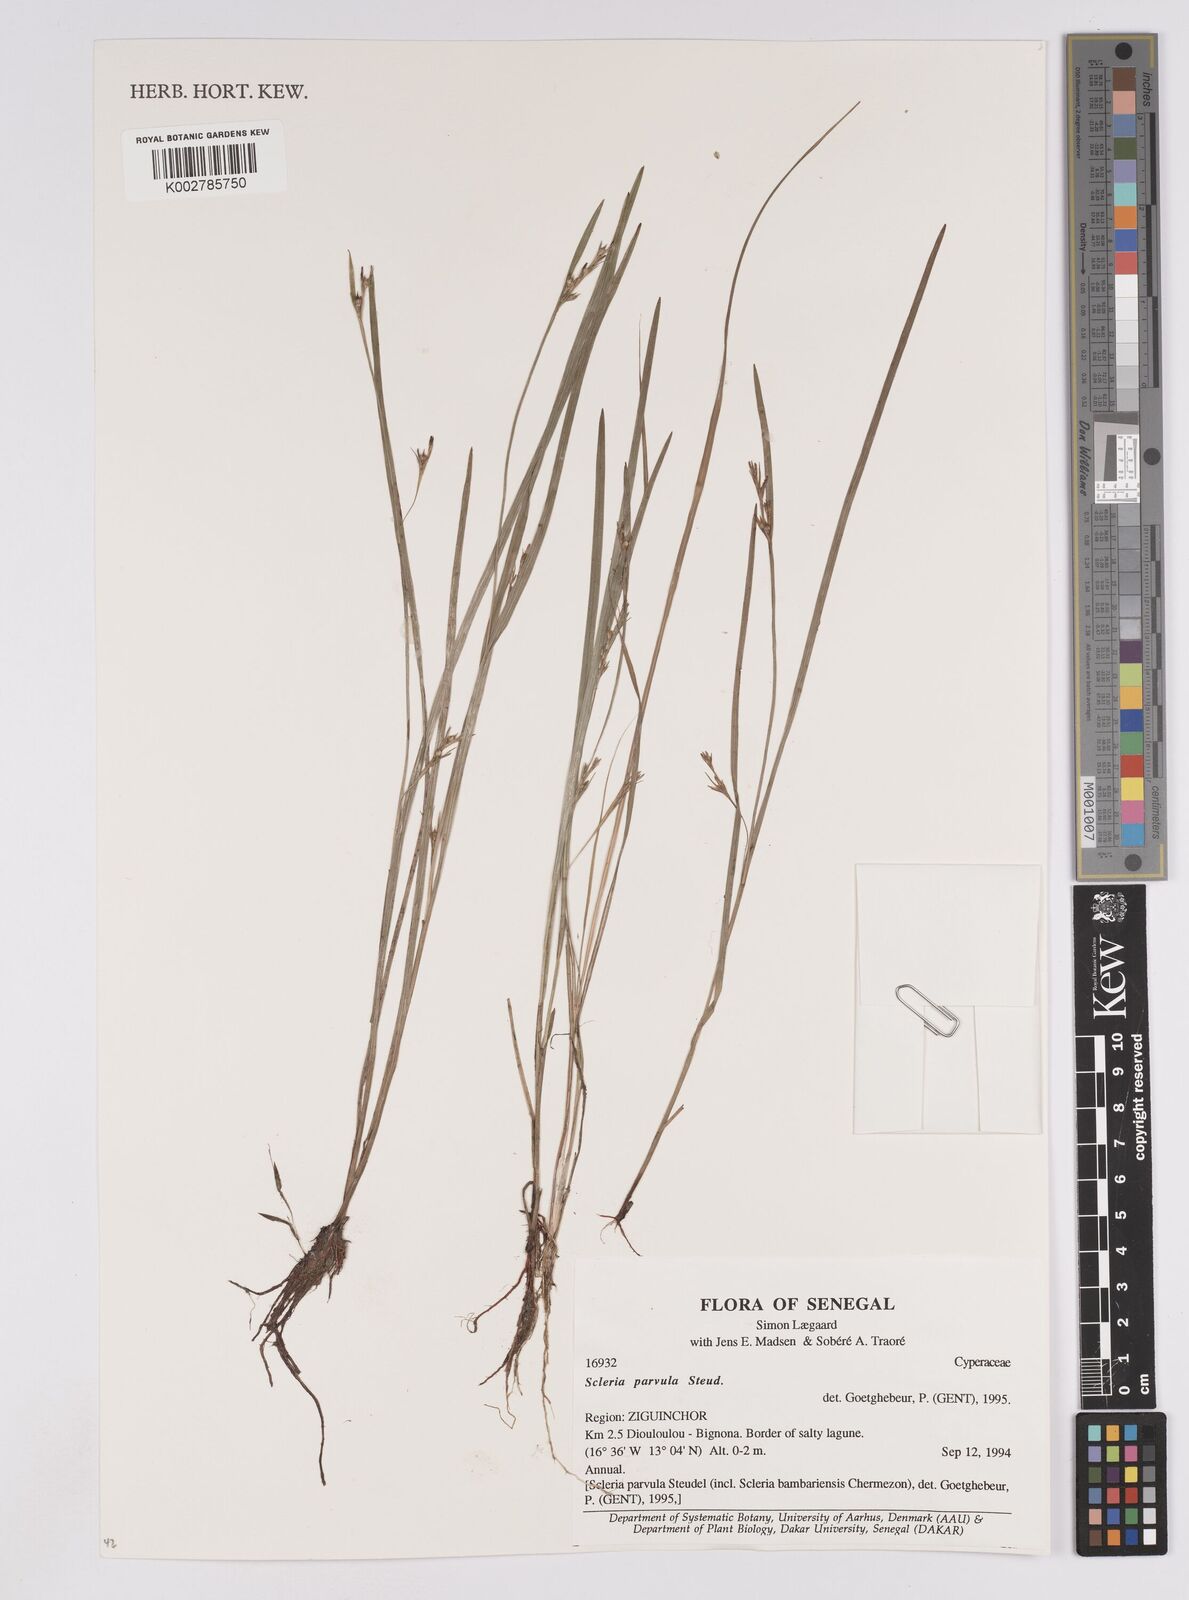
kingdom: Plantae
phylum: Tracheophyta
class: Liliopsida
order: Poales
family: Cyperaceae
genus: Scleria
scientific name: Scleria parvula
